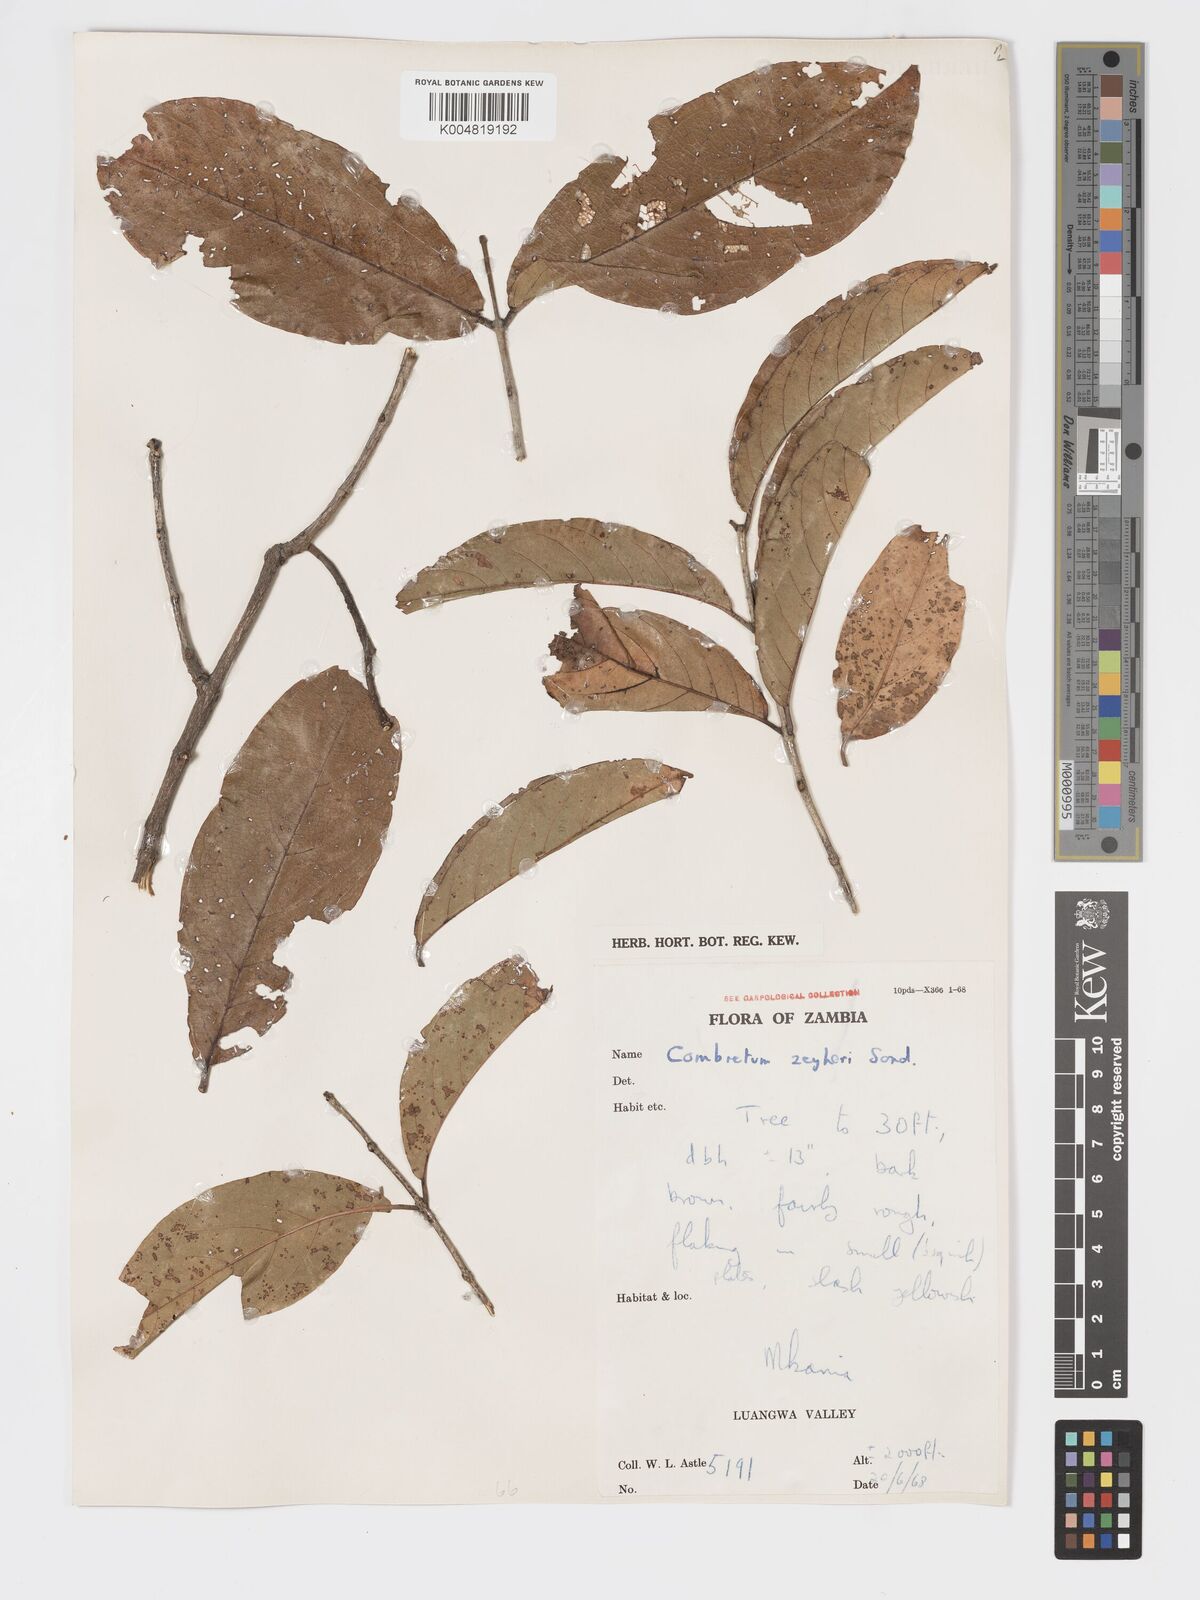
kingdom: Plantae
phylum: Tracheophyta
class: Magnoliopsida
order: Myrtales
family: Combretaceae
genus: Combretum
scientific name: Combretum zeyheri
